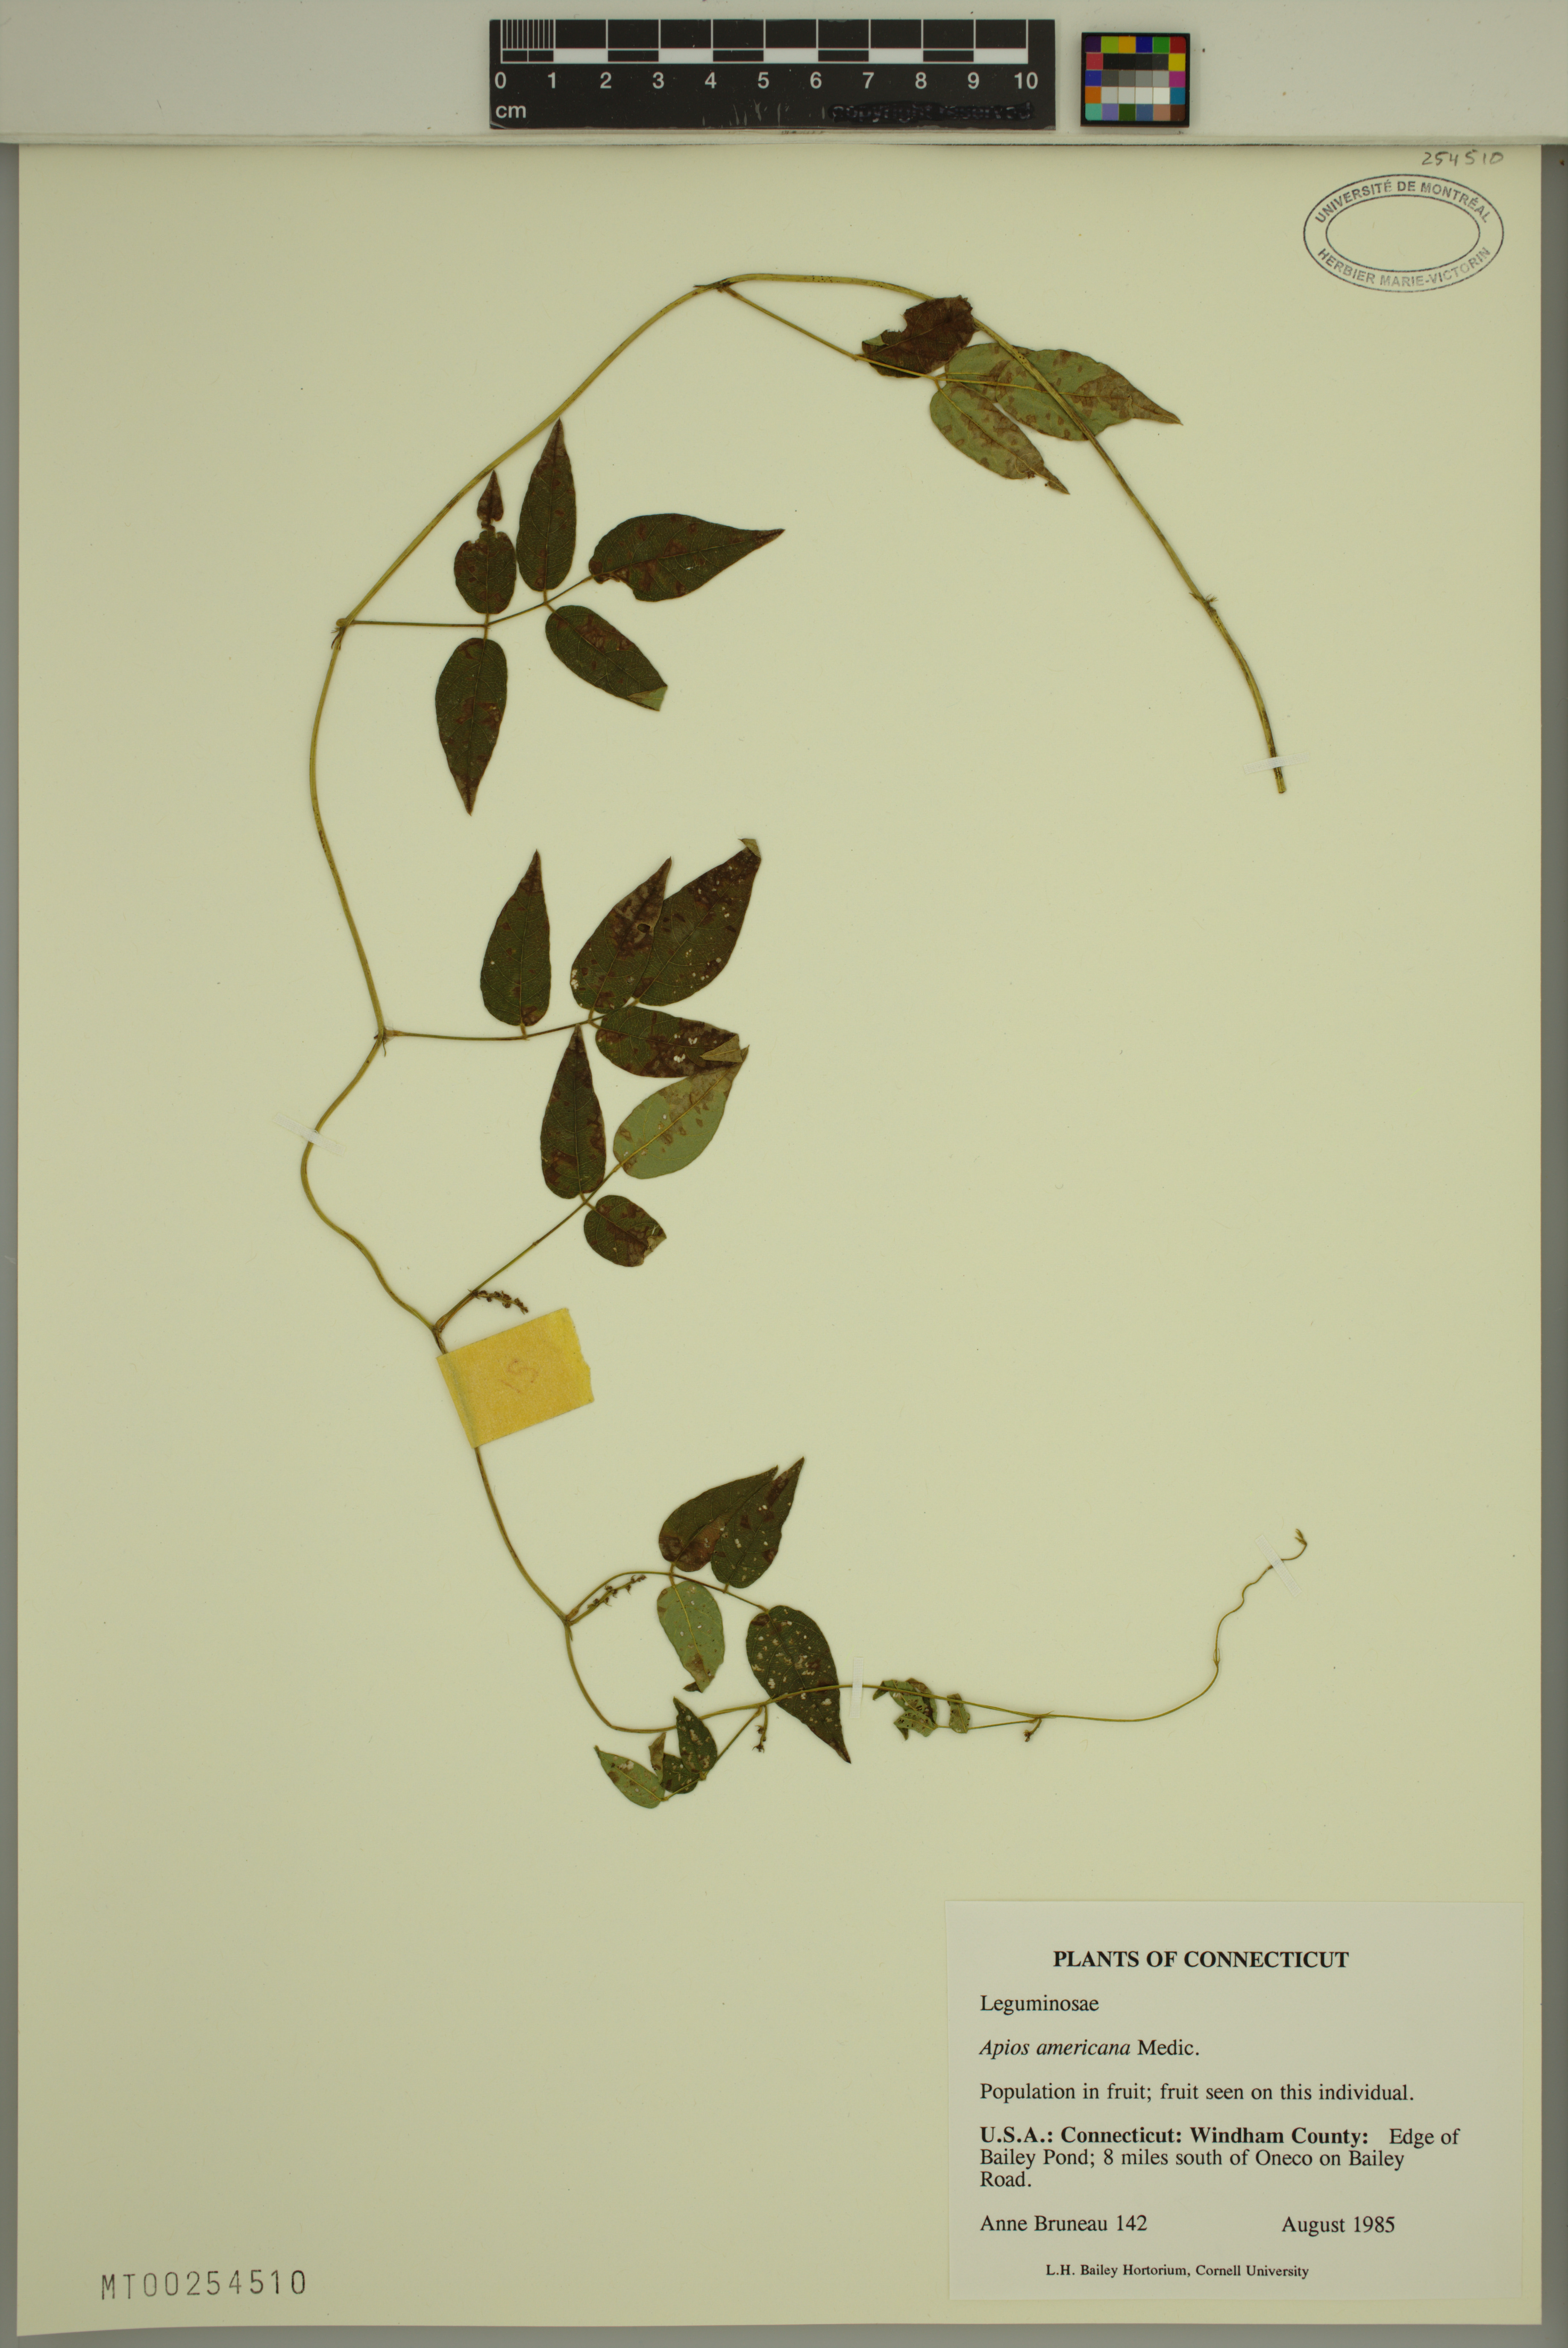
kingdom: Plantae
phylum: Tracheophyta
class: Magnoliopsida
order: Fabales
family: Fabaceae
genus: Apios
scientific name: Apios americana
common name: American potato-bean
